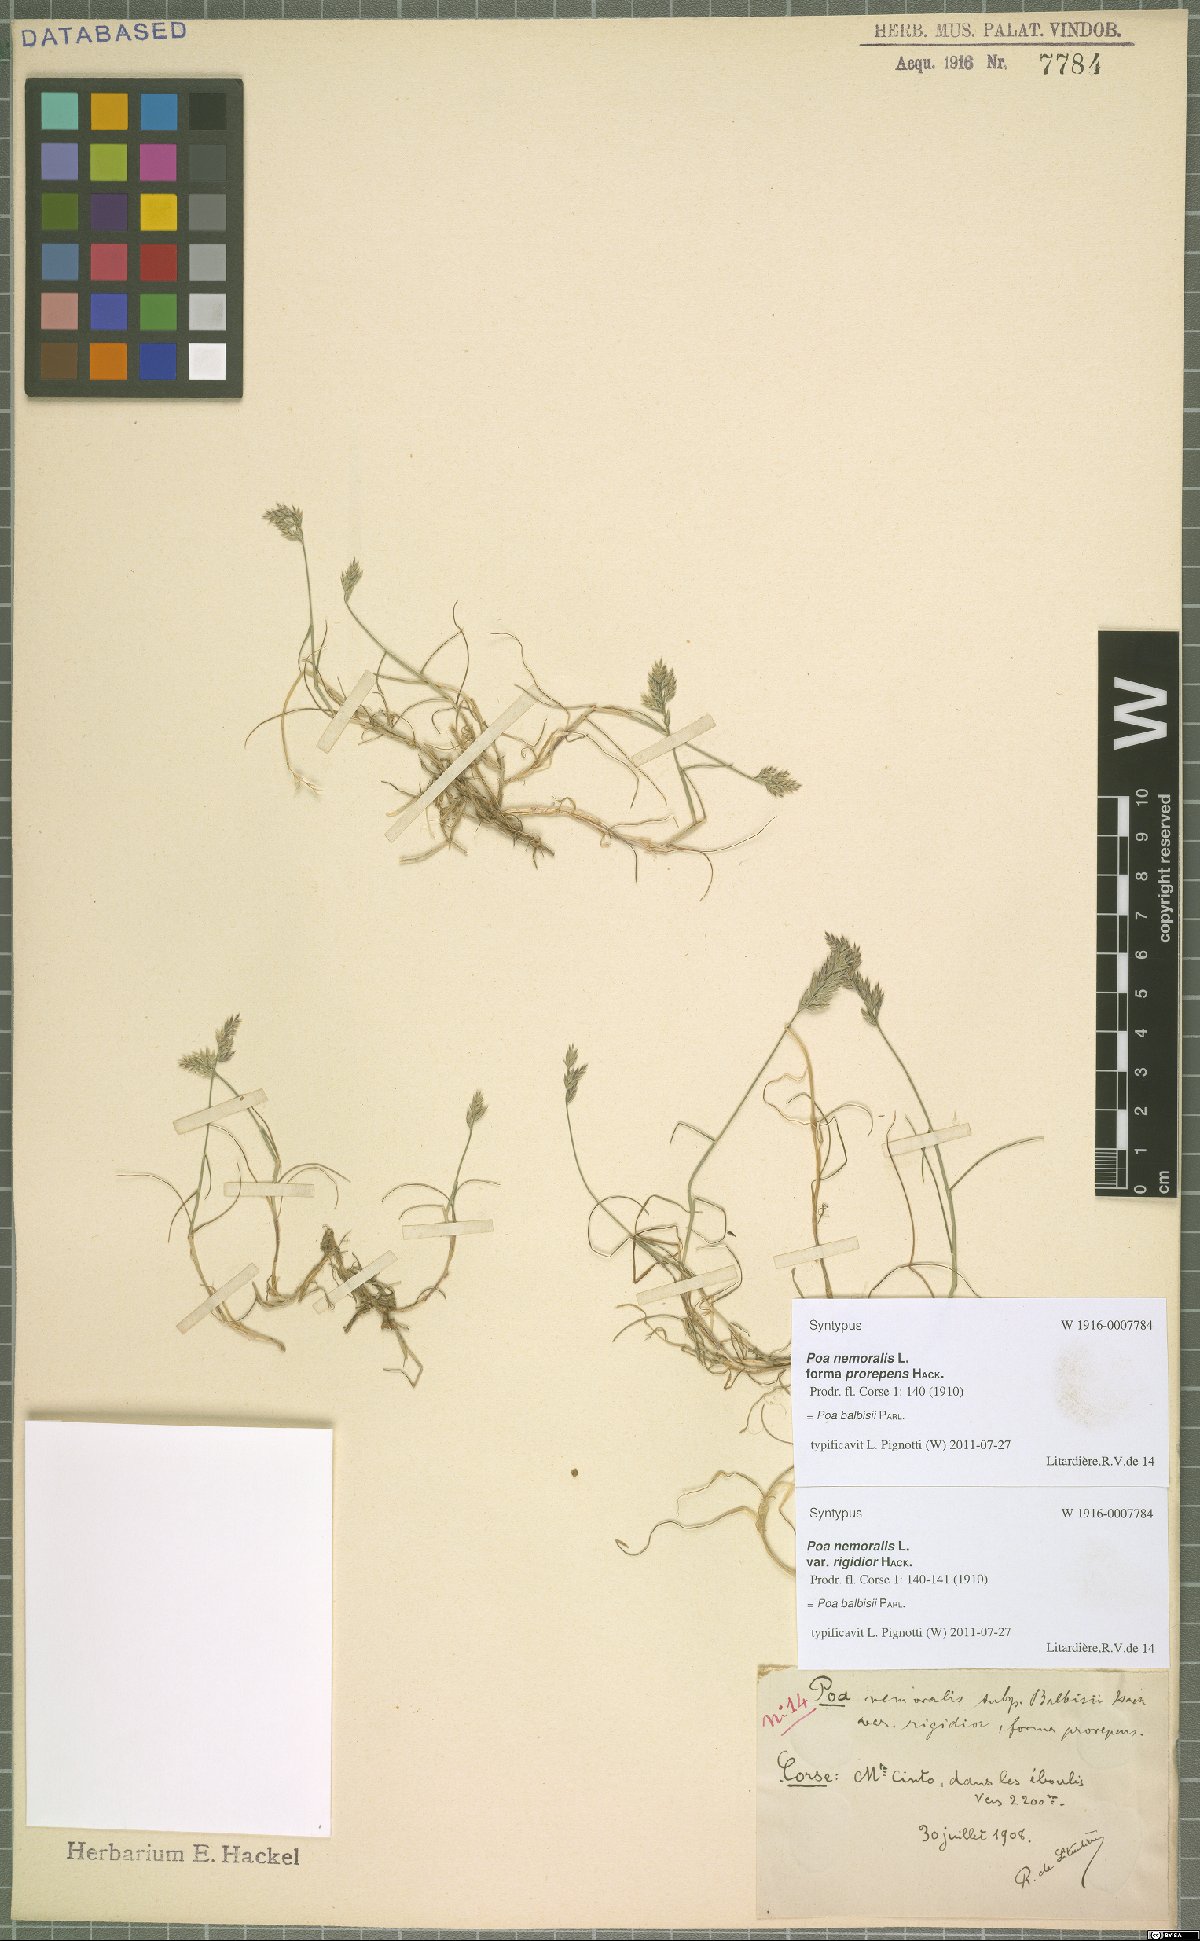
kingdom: Plantae
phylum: Tracheophyta
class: Liliopsida
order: Poales
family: Poaceae
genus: Poa
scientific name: Poa balbisii
